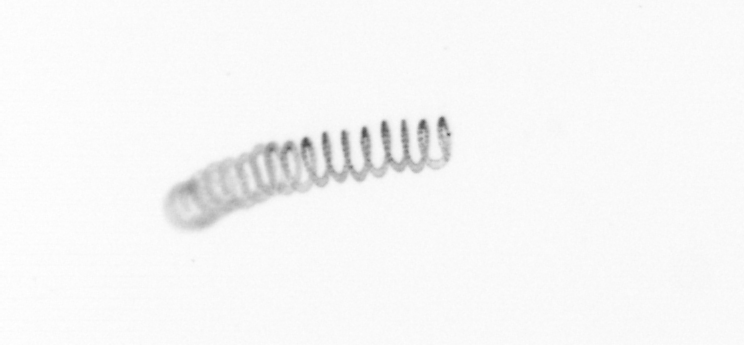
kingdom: Chromista
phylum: Ochrophyta
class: Bacillariophyceae
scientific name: Bacillariophyceae
